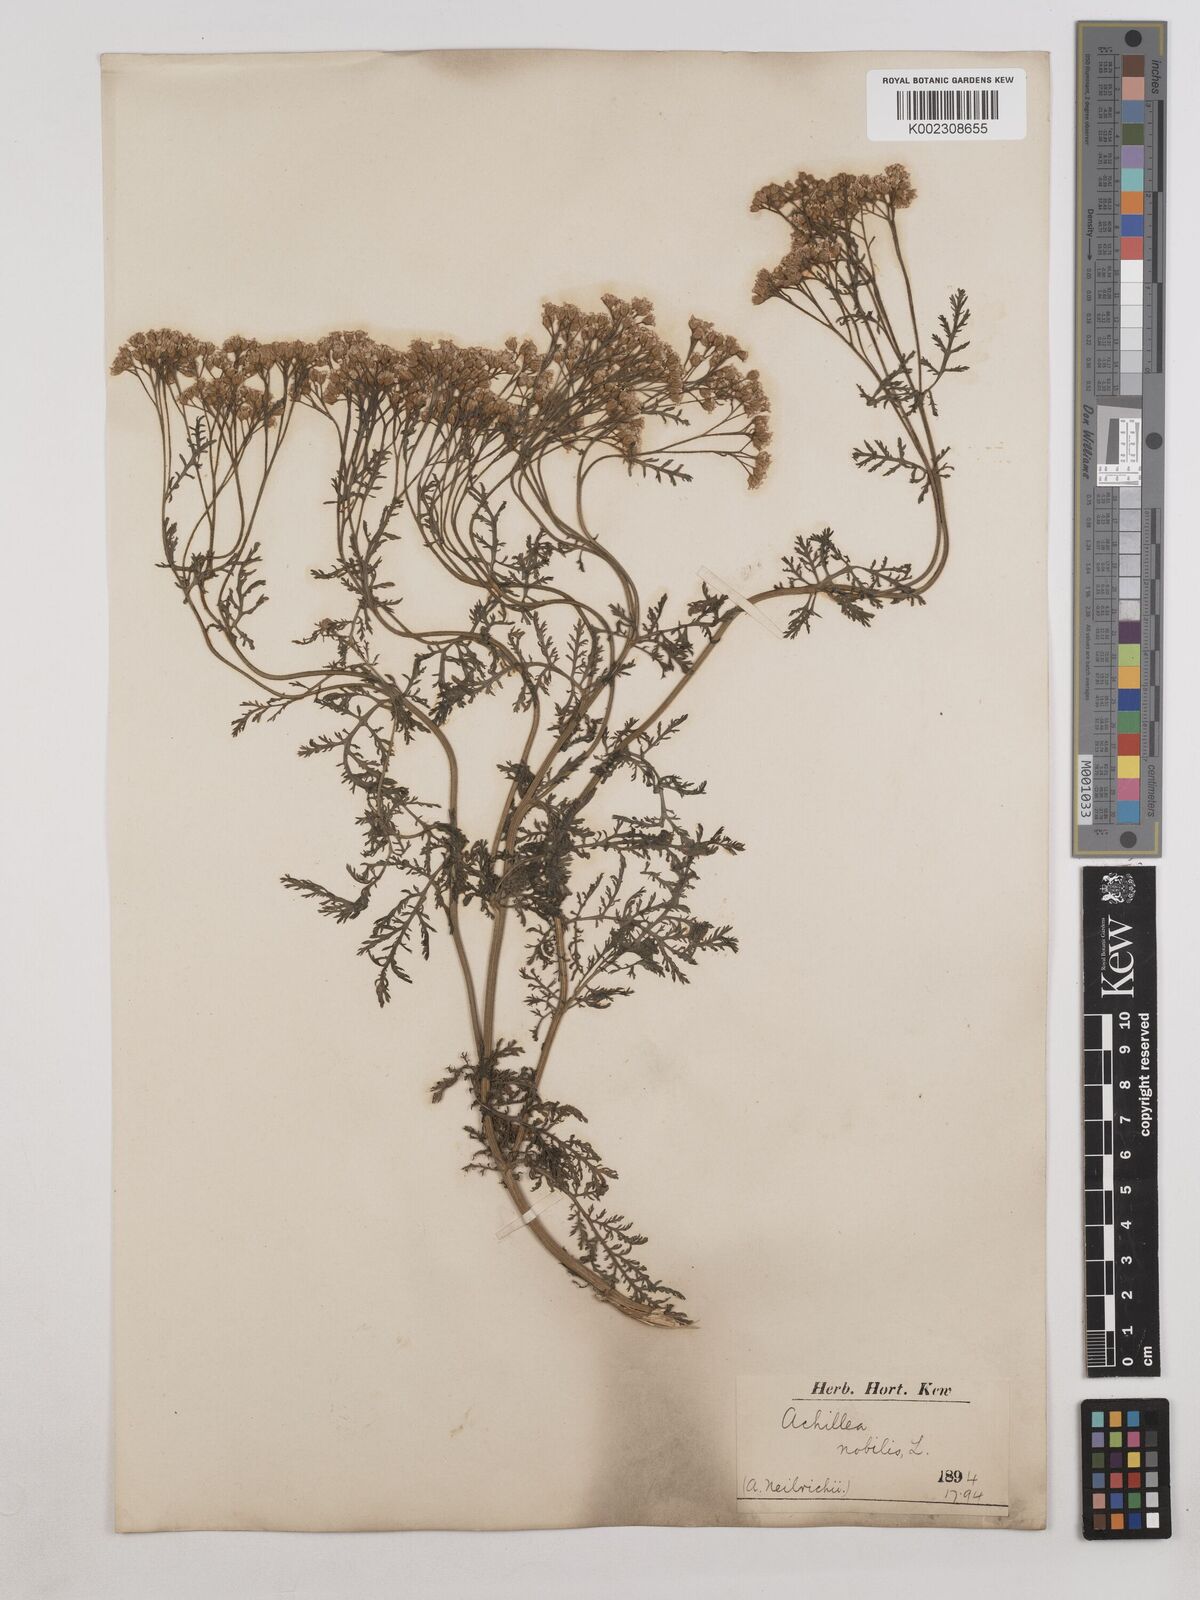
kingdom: Plantae
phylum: Tracheophyta
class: Magnoliopsida
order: Asterales
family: Asteraceae
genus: Achillea
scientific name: Achillea nobilis
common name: Noble yarrow
